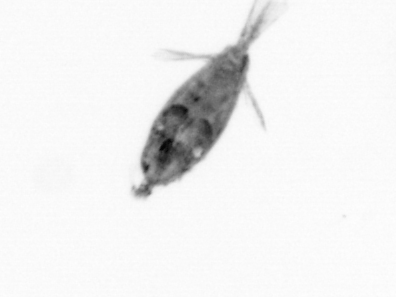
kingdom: Animalia
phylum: Arthropoda
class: Maxillopoda
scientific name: Maxillopoda
